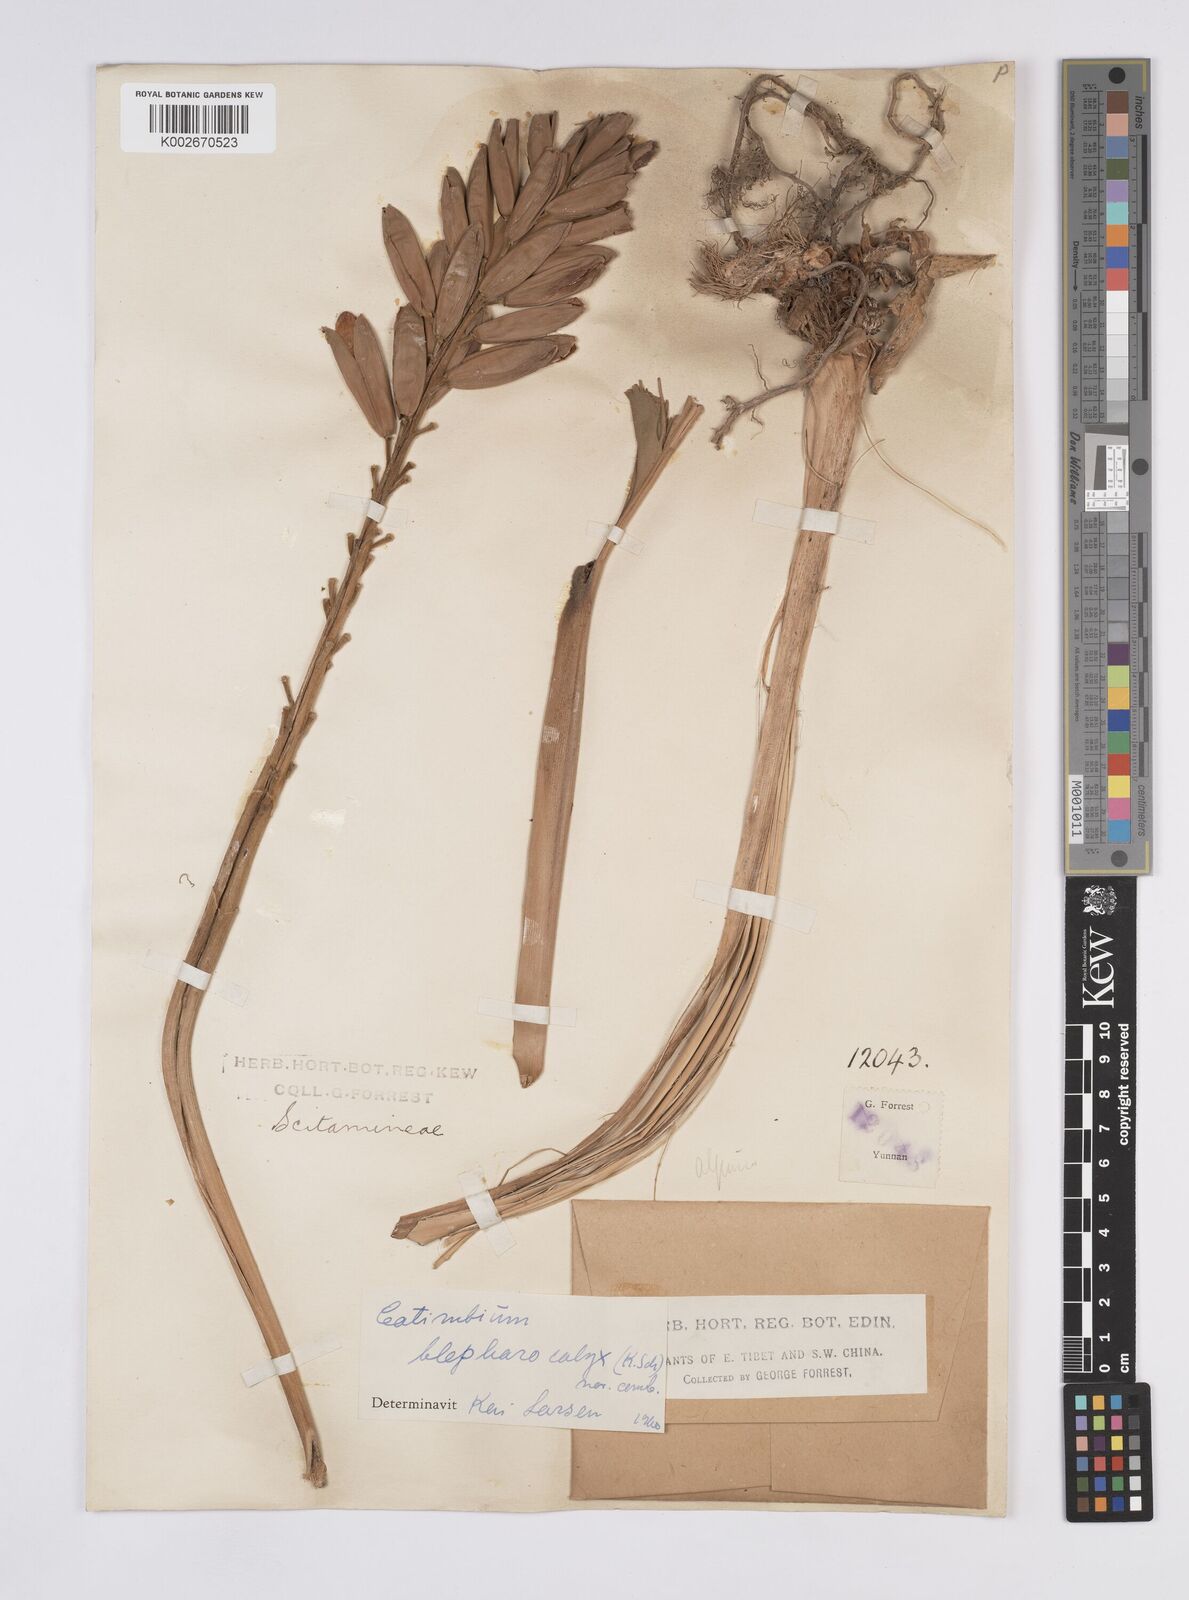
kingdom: Plantae
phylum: Tracheophyta
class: Liliopsida
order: Zingiberales
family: Zingiberaceae
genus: Alpinia
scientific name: Alpinia roxburghii
